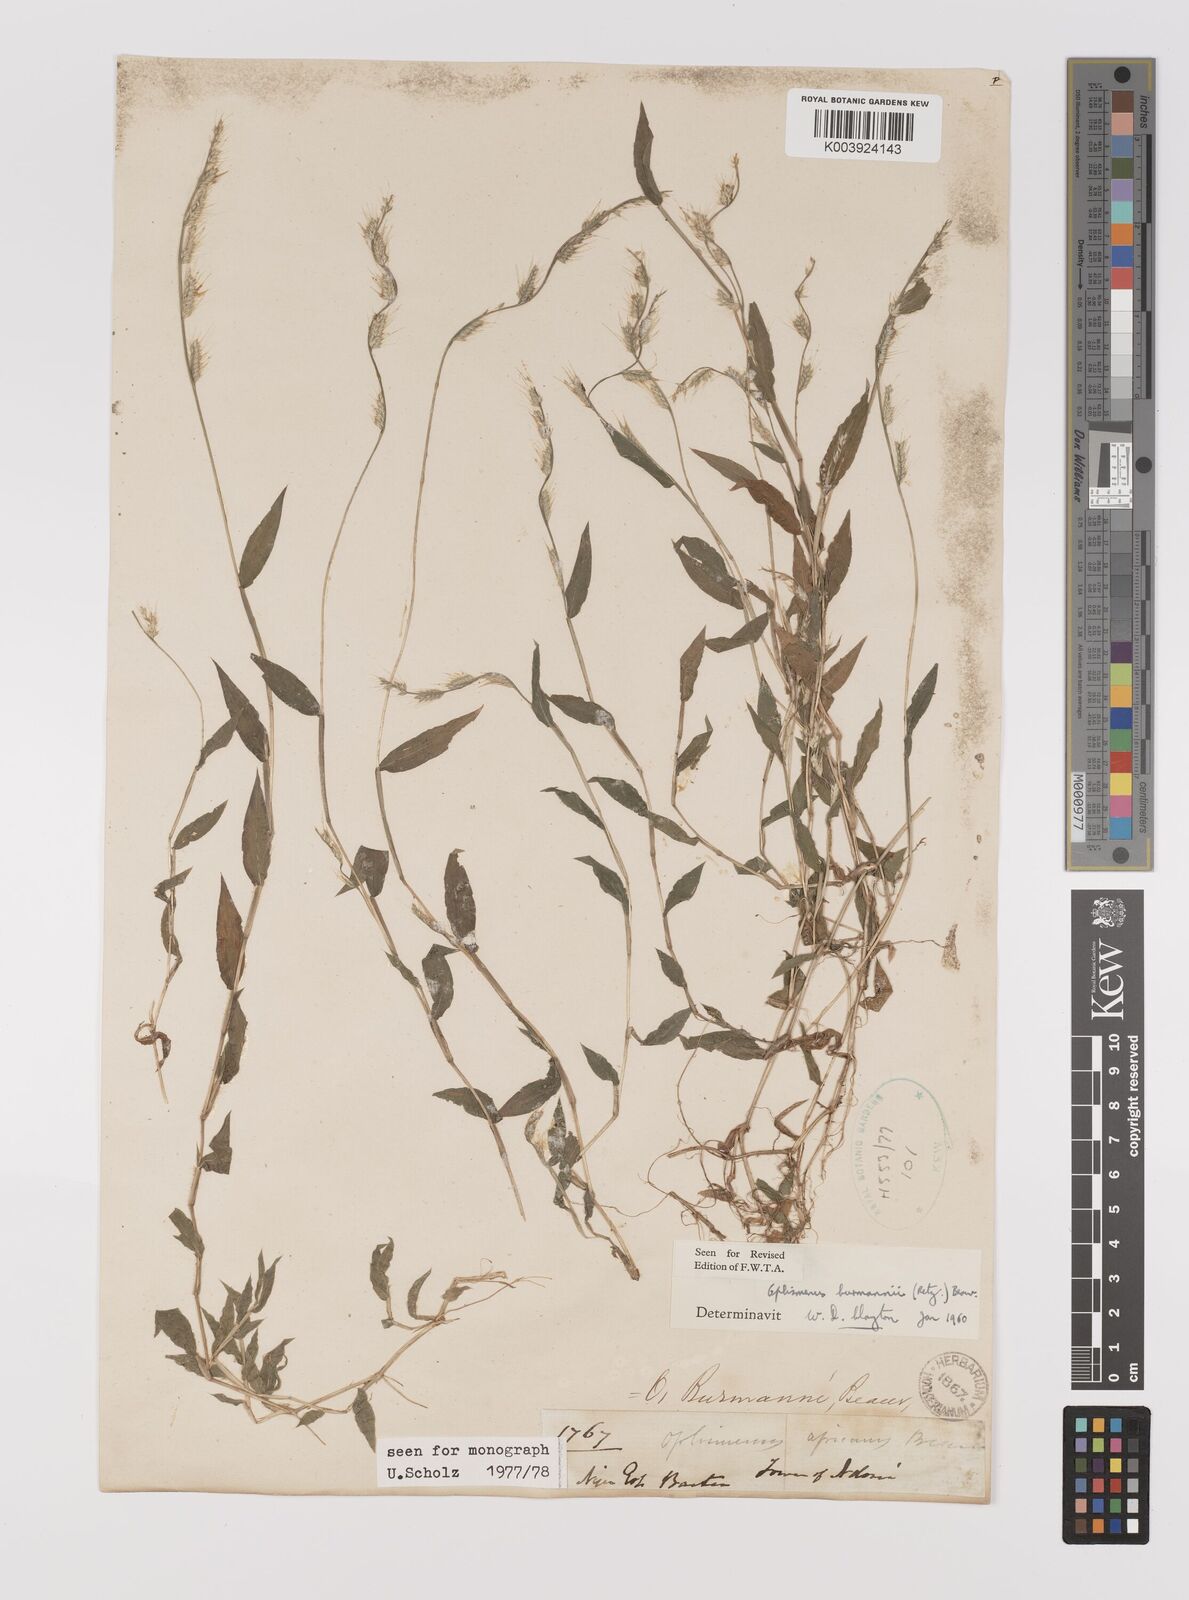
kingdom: Plantae
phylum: Tracheophyta
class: Liliopsida
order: Poales
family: Poaceae
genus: Oplismenus
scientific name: Oplismenus burmanni
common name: Burmann's basketgrass
